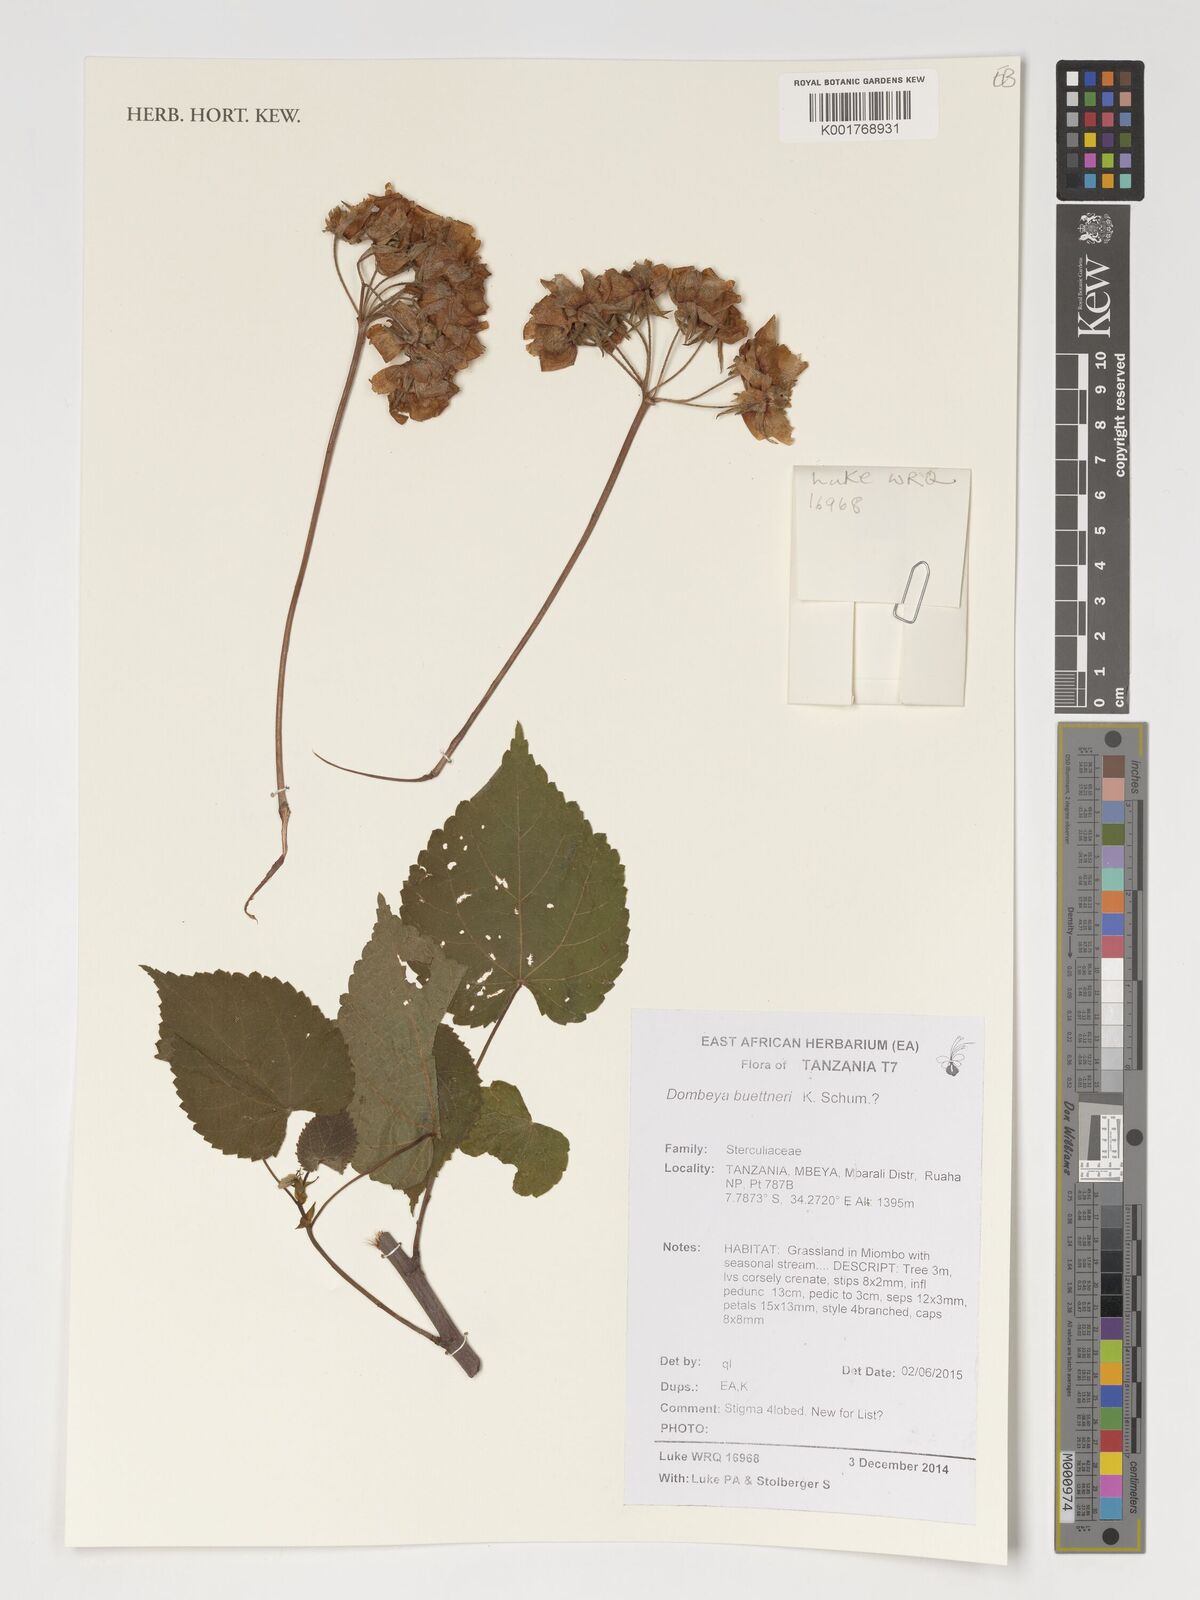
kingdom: Plantae
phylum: Tracheophyta
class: Magnoliopsida
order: Malvales
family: Malvaceae
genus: Dombeya
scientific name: Dombeya buettneri
